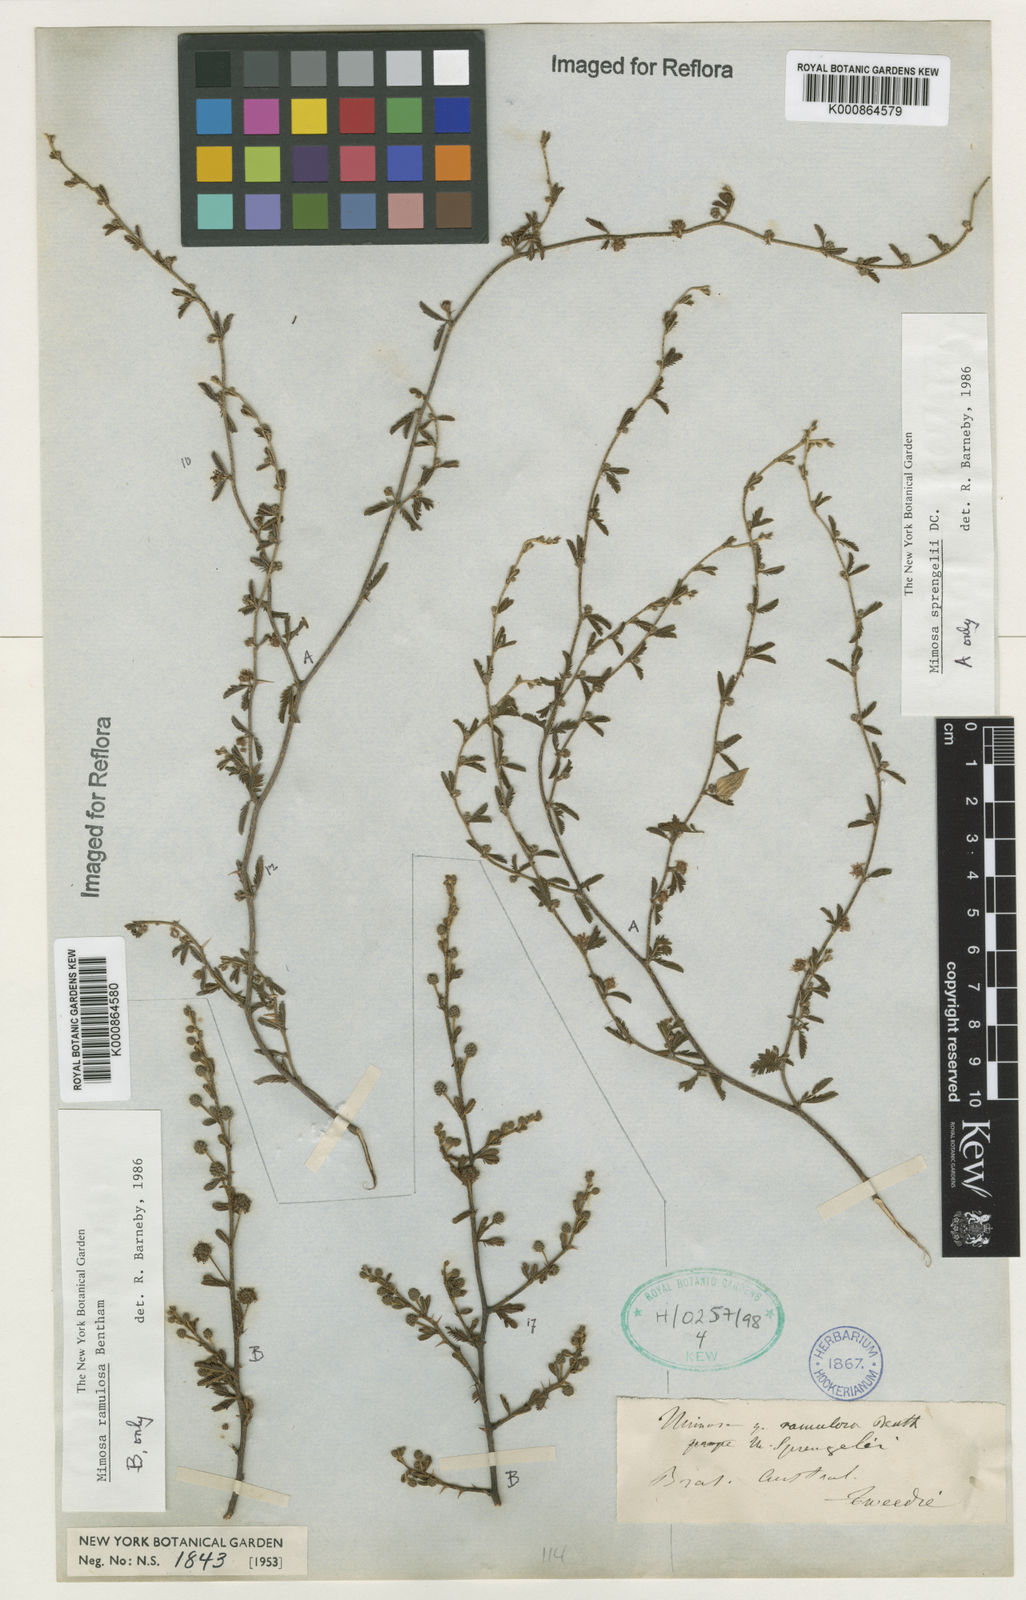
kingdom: Plantae
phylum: Tracheophyta
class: Magnoliopsida
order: Fabales
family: Fabaceae
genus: Mimosa
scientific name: Mimosa sprengelii
